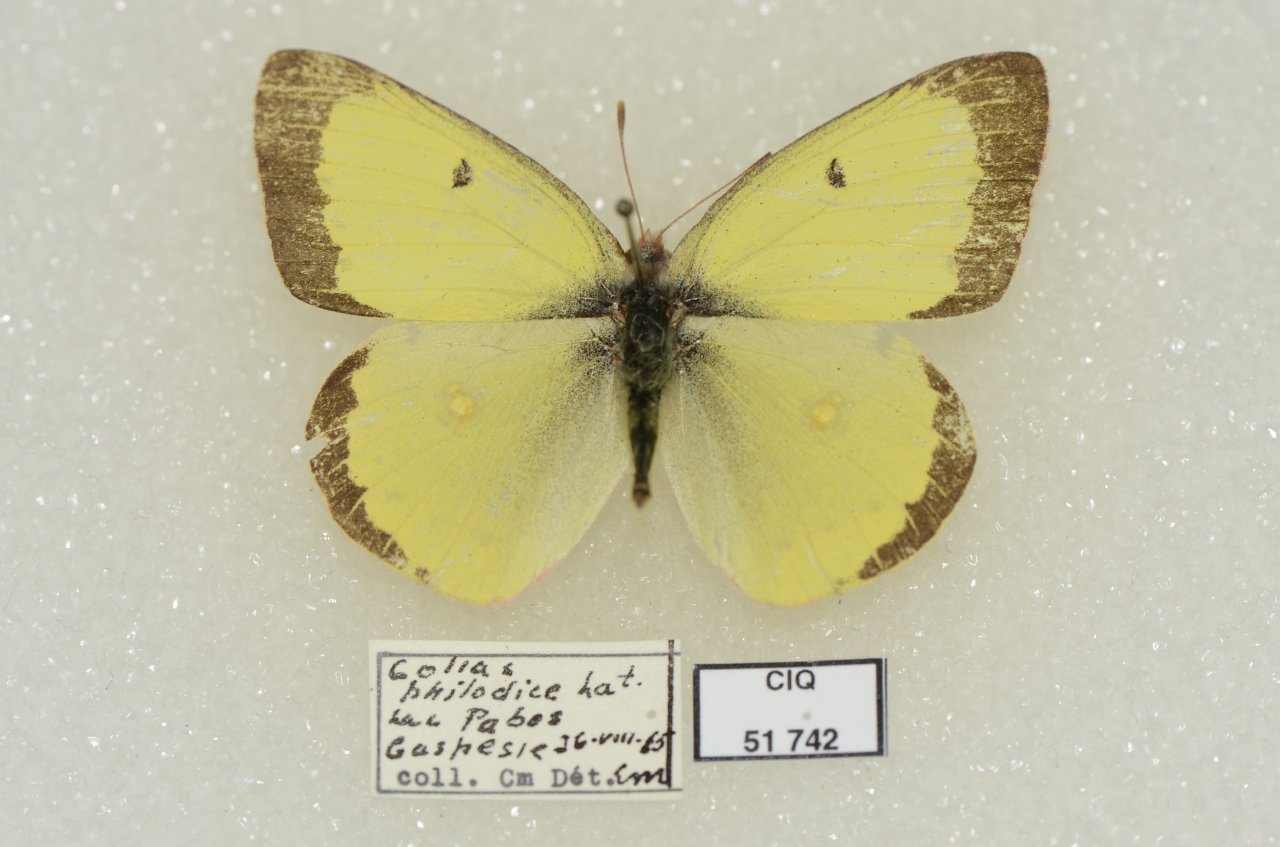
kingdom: Animalia
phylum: Arthropoda
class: Insecta
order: Lepidoptera
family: Pieridae
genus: Colias
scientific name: Colias philodice
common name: Clouded Sulphur
